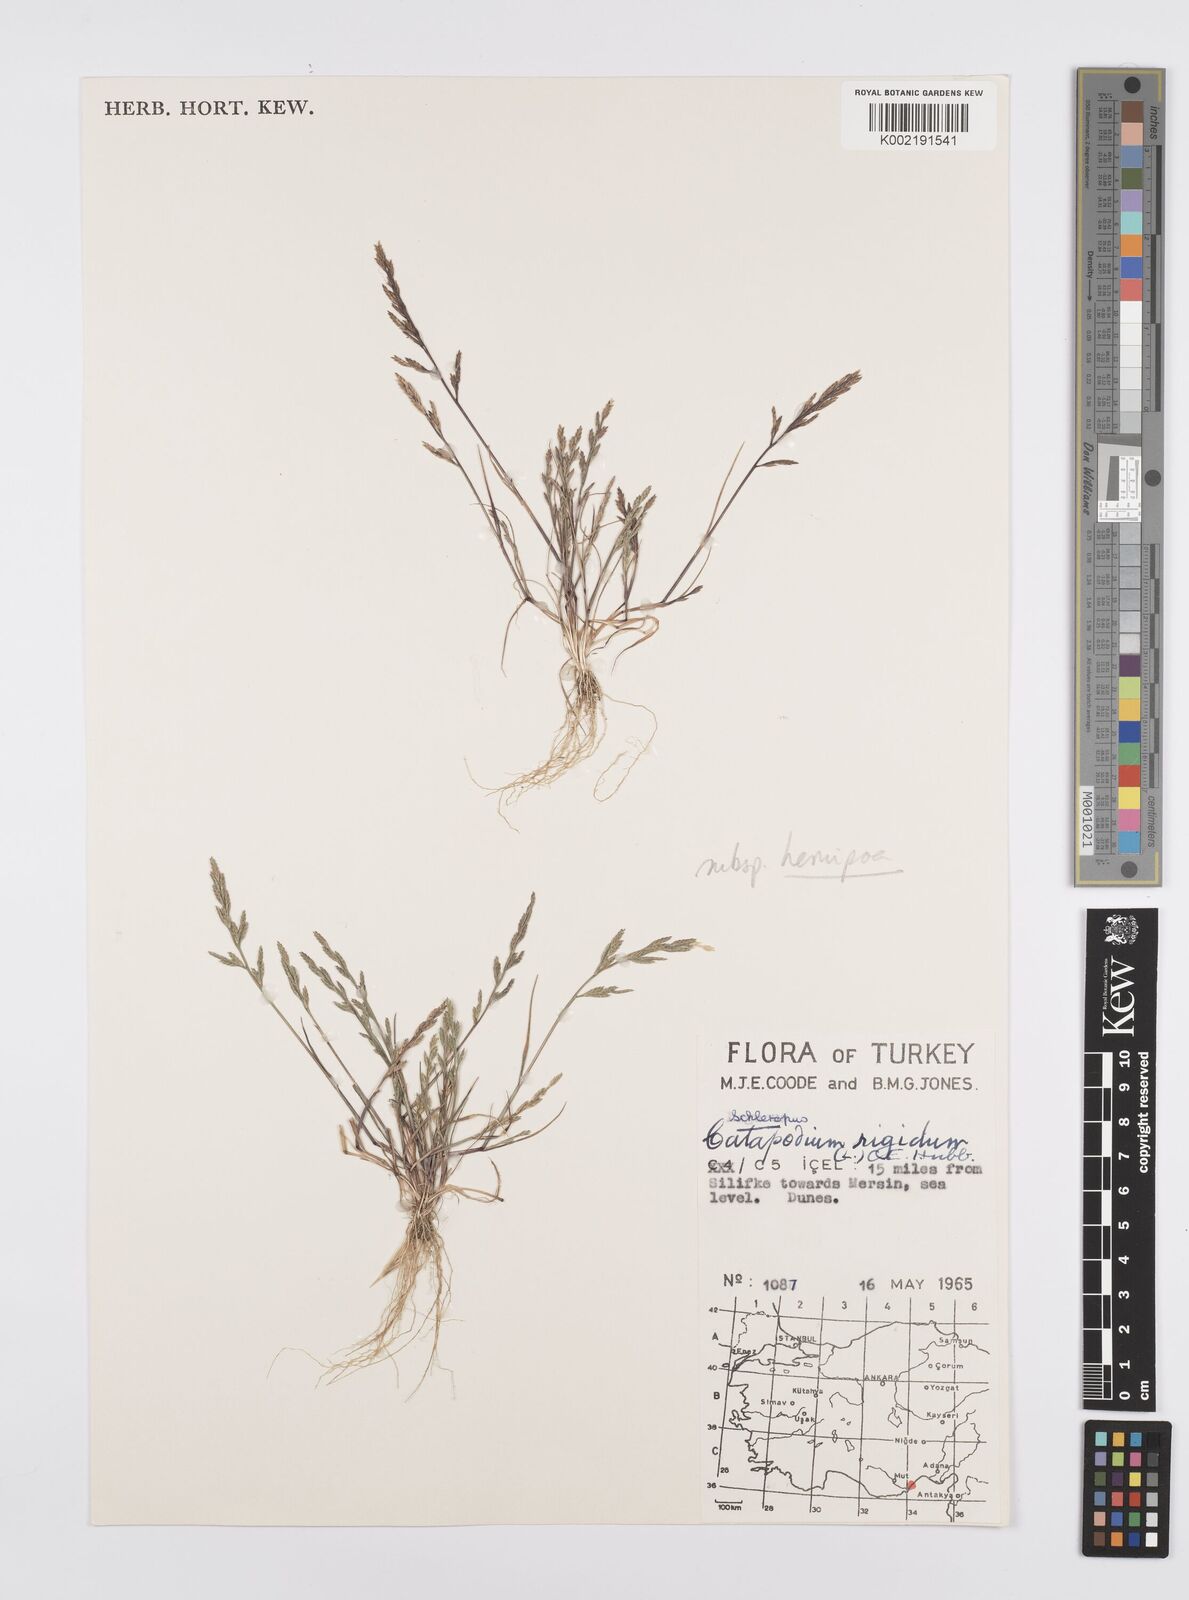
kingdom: Plantae
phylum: Tracheophyta
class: Liliopsida
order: Poales
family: Poaceae
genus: Catapodium
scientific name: Catapodium rigidum
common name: Fern-grass
